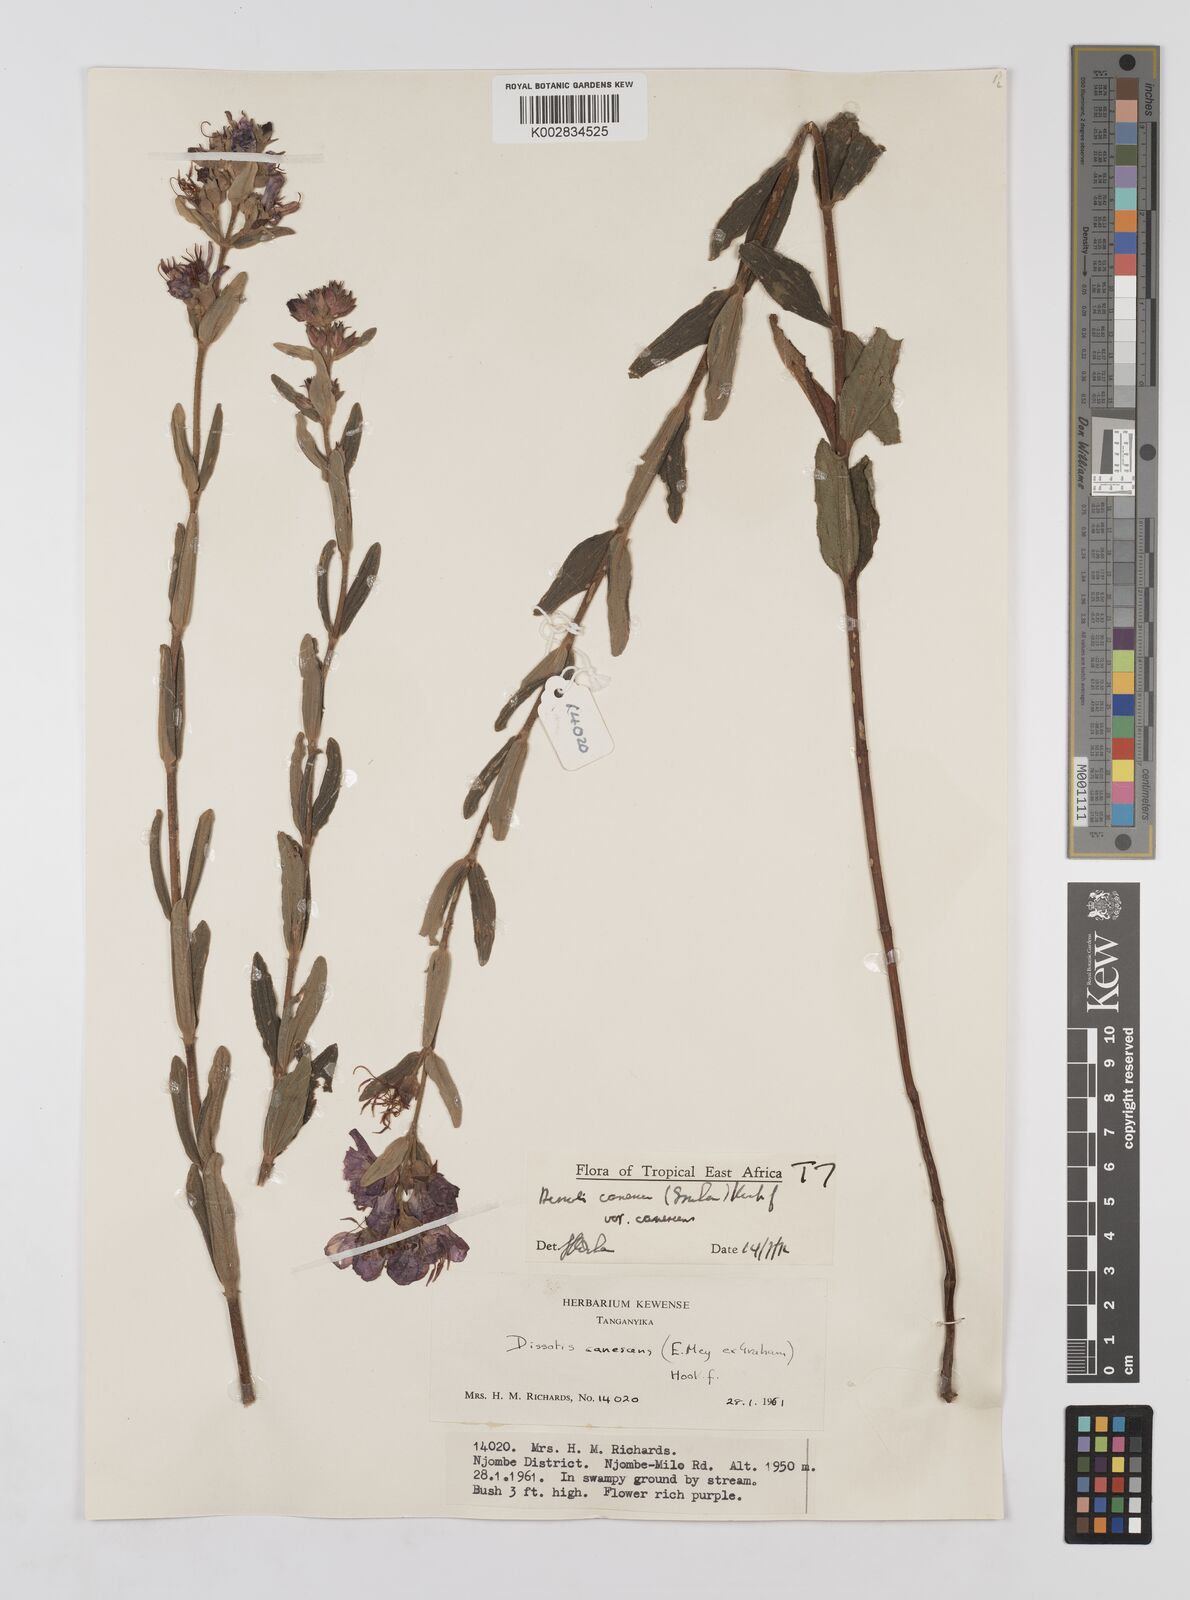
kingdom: Plantae
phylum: Tracheophyta
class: Magnoliopsida
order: Myrtales
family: Melastomataceae
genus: Argyrella
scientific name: Argyrella canescens
